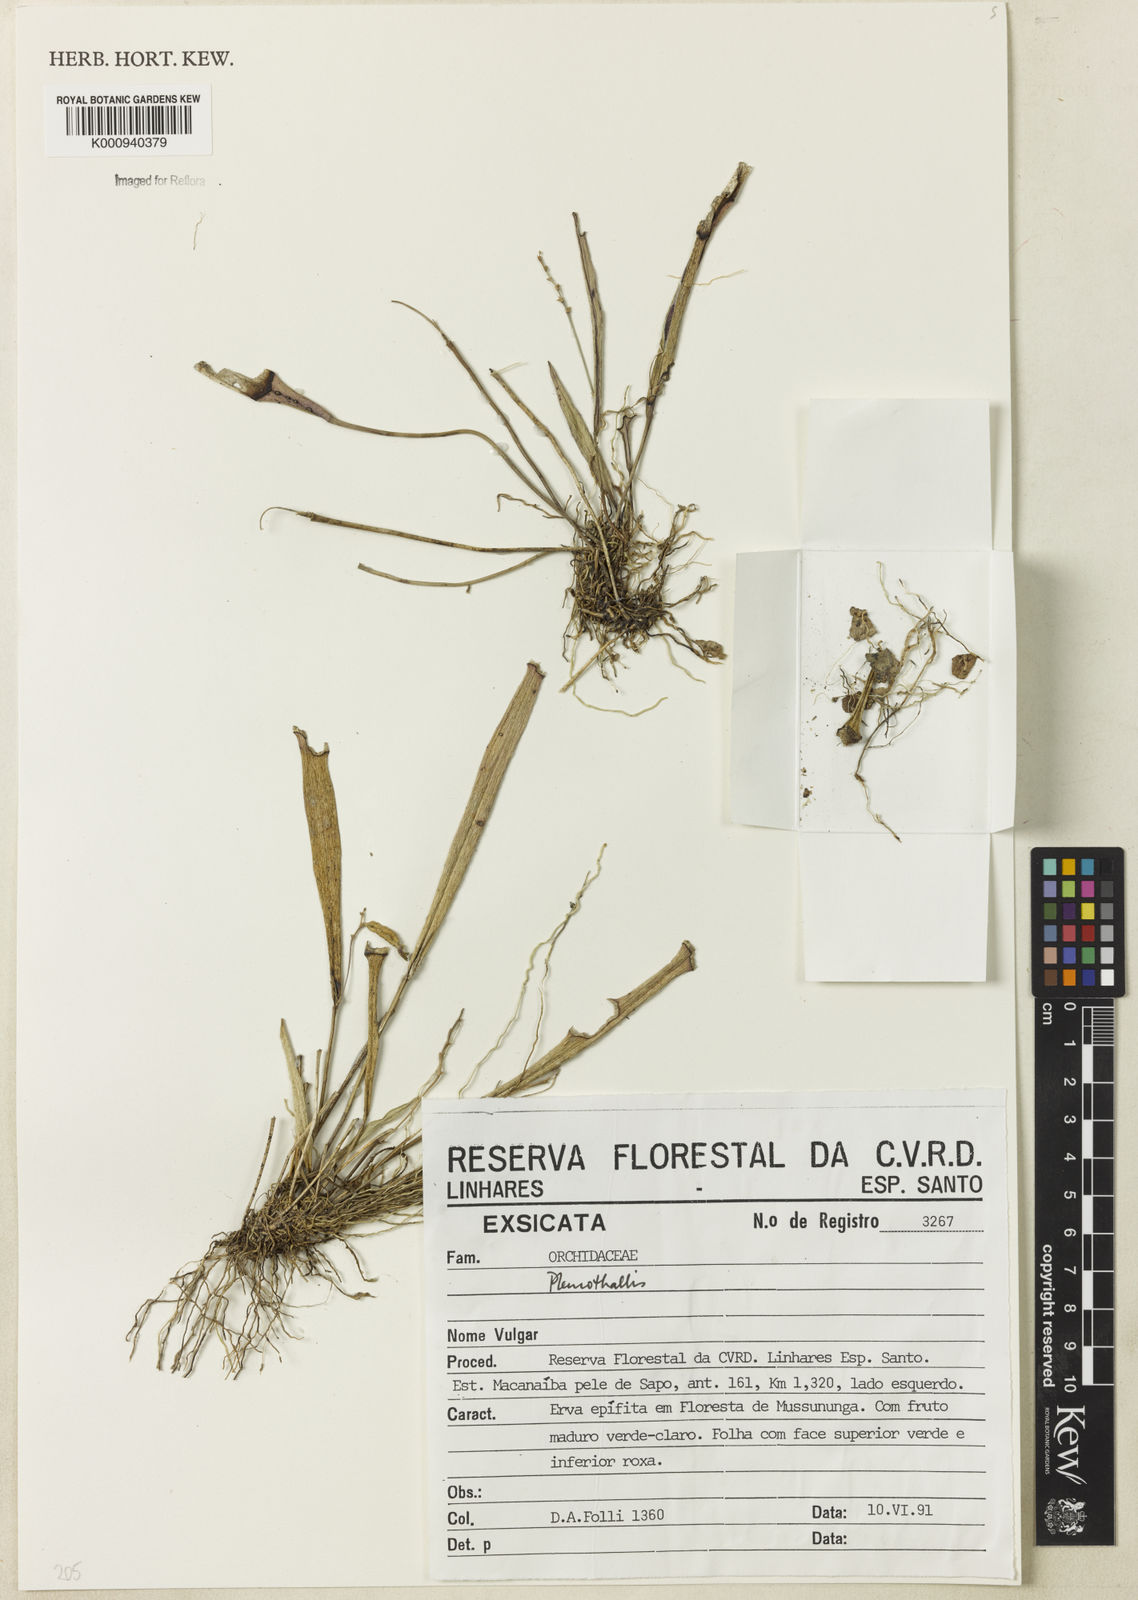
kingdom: Plantae
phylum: Tracheophyta
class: Liliopsida
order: Asparagales
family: Orchidaceae
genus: Pleurothallis
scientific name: Pleurothallis
